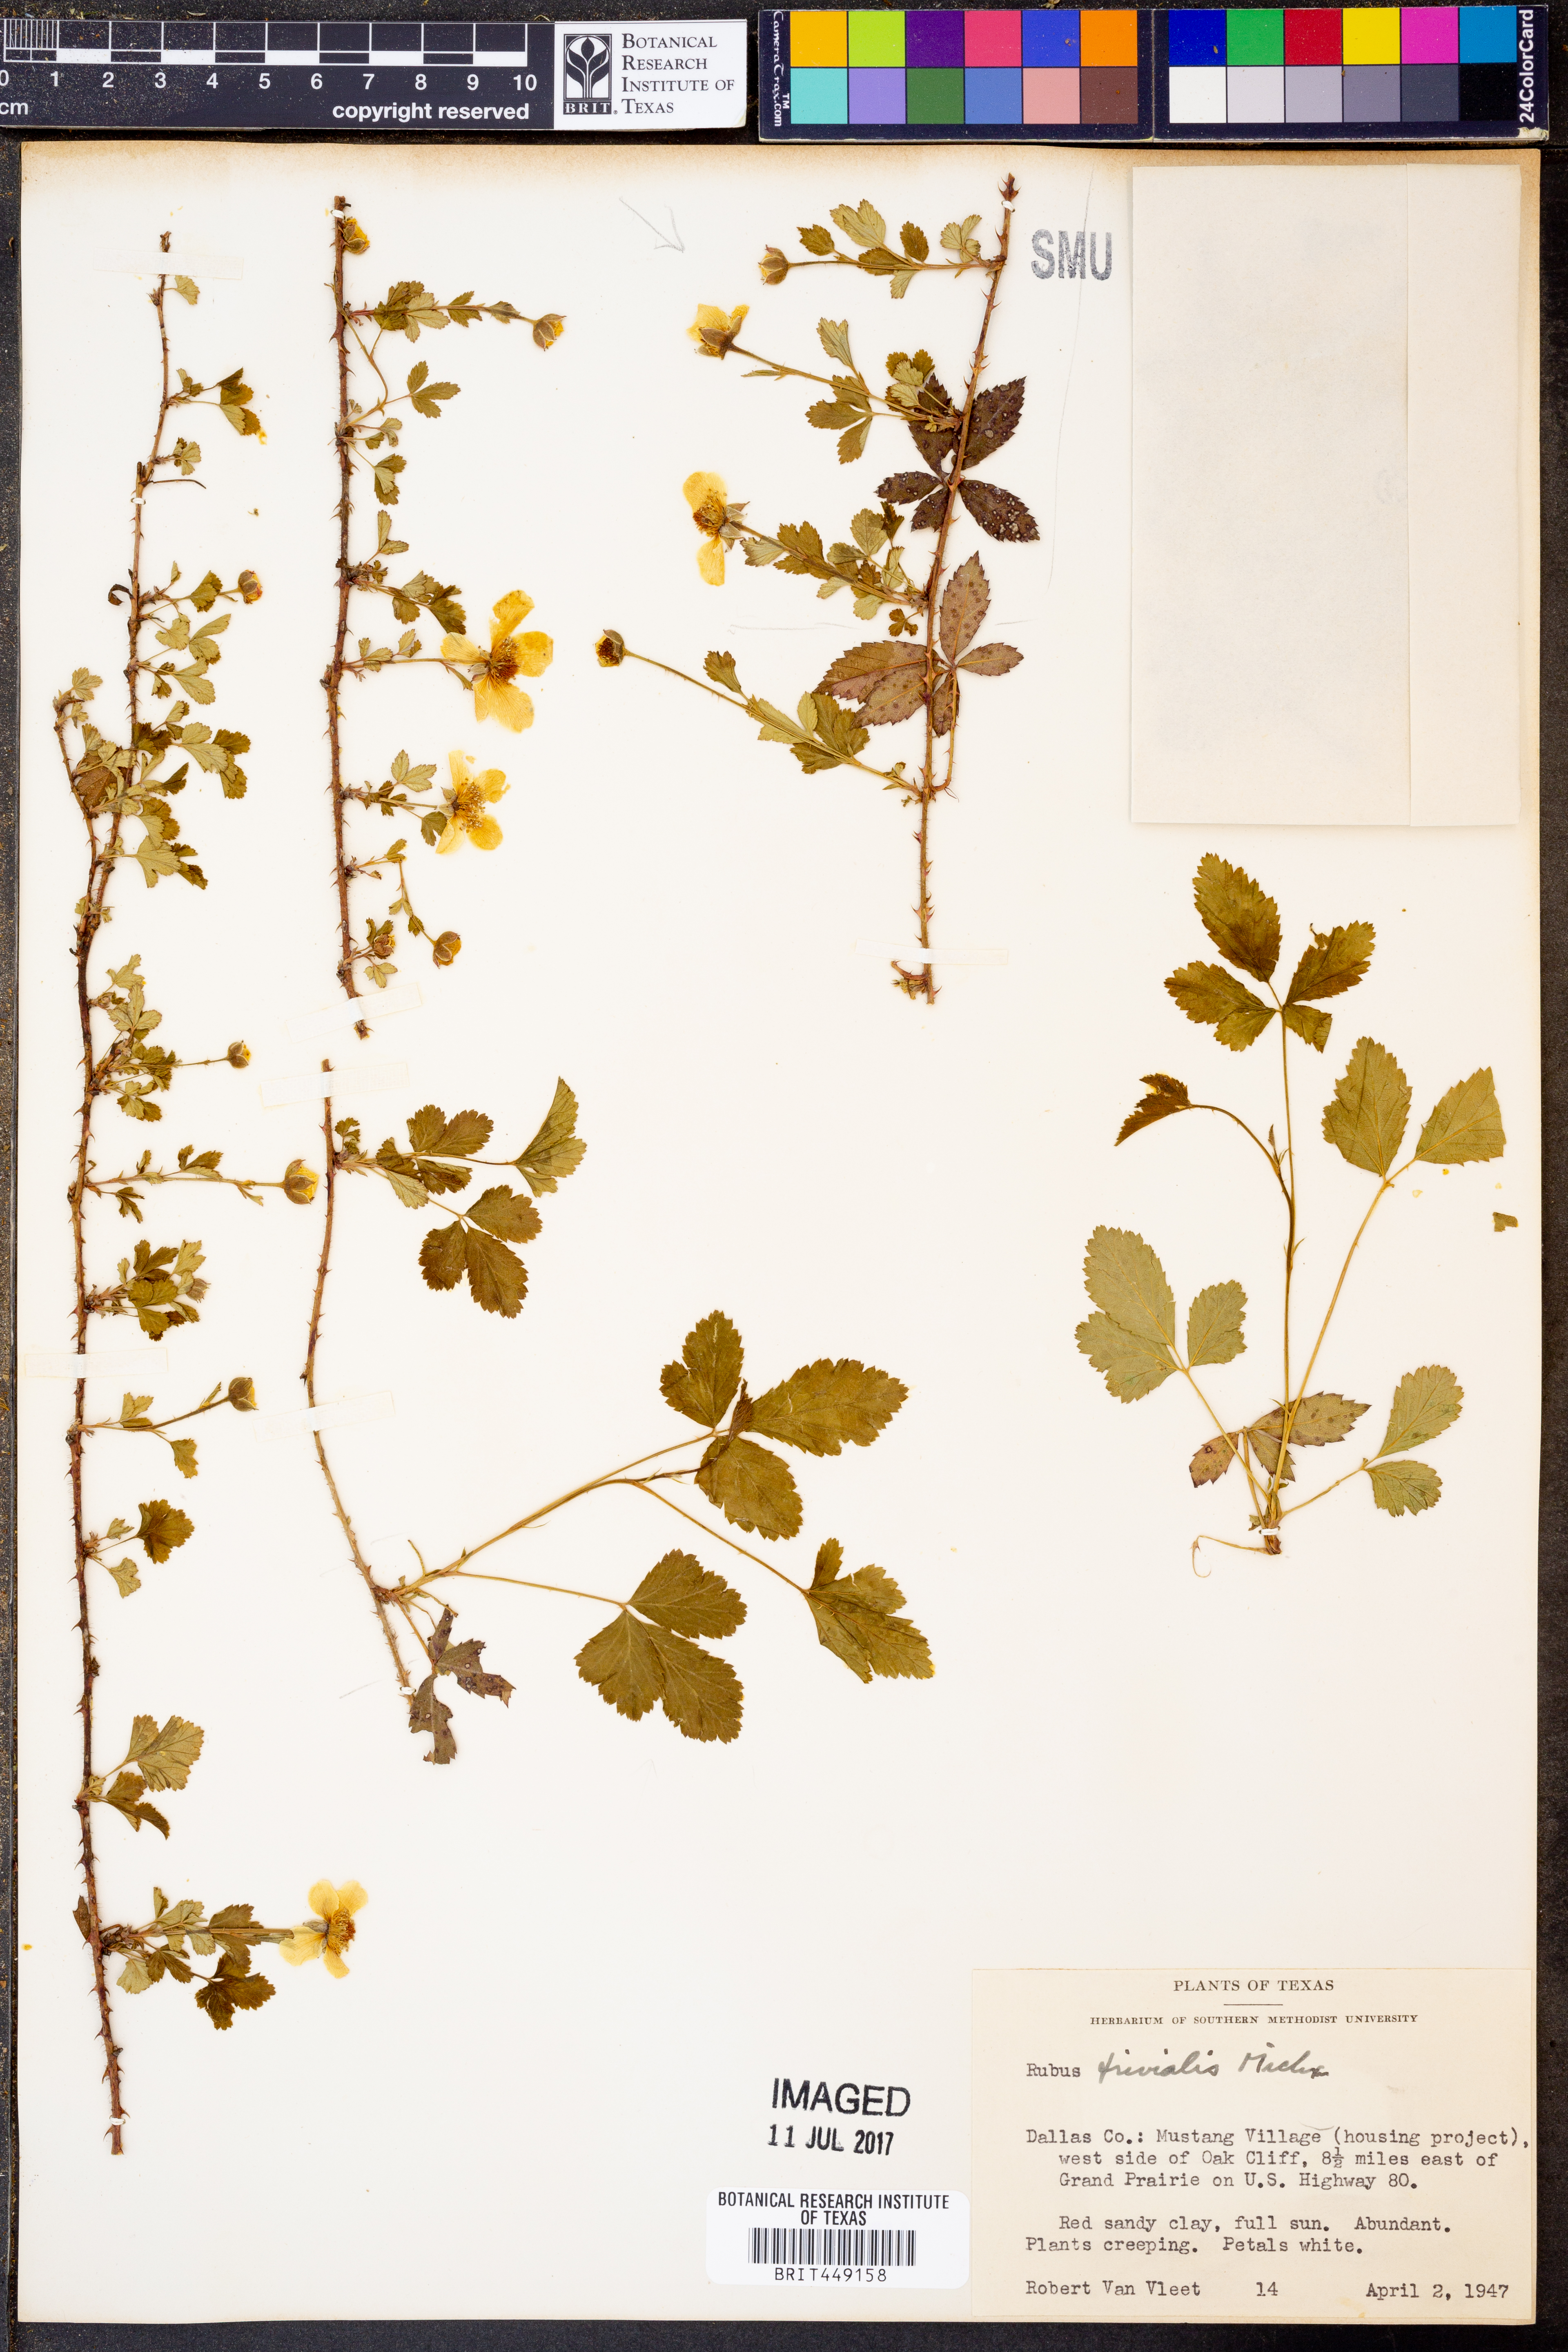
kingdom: Plantae
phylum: Tracheophyta
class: Magnoliopsida
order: Rosales
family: Rosaceae
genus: Rubus
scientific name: Rubus trivialis
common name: Southern dewberry
